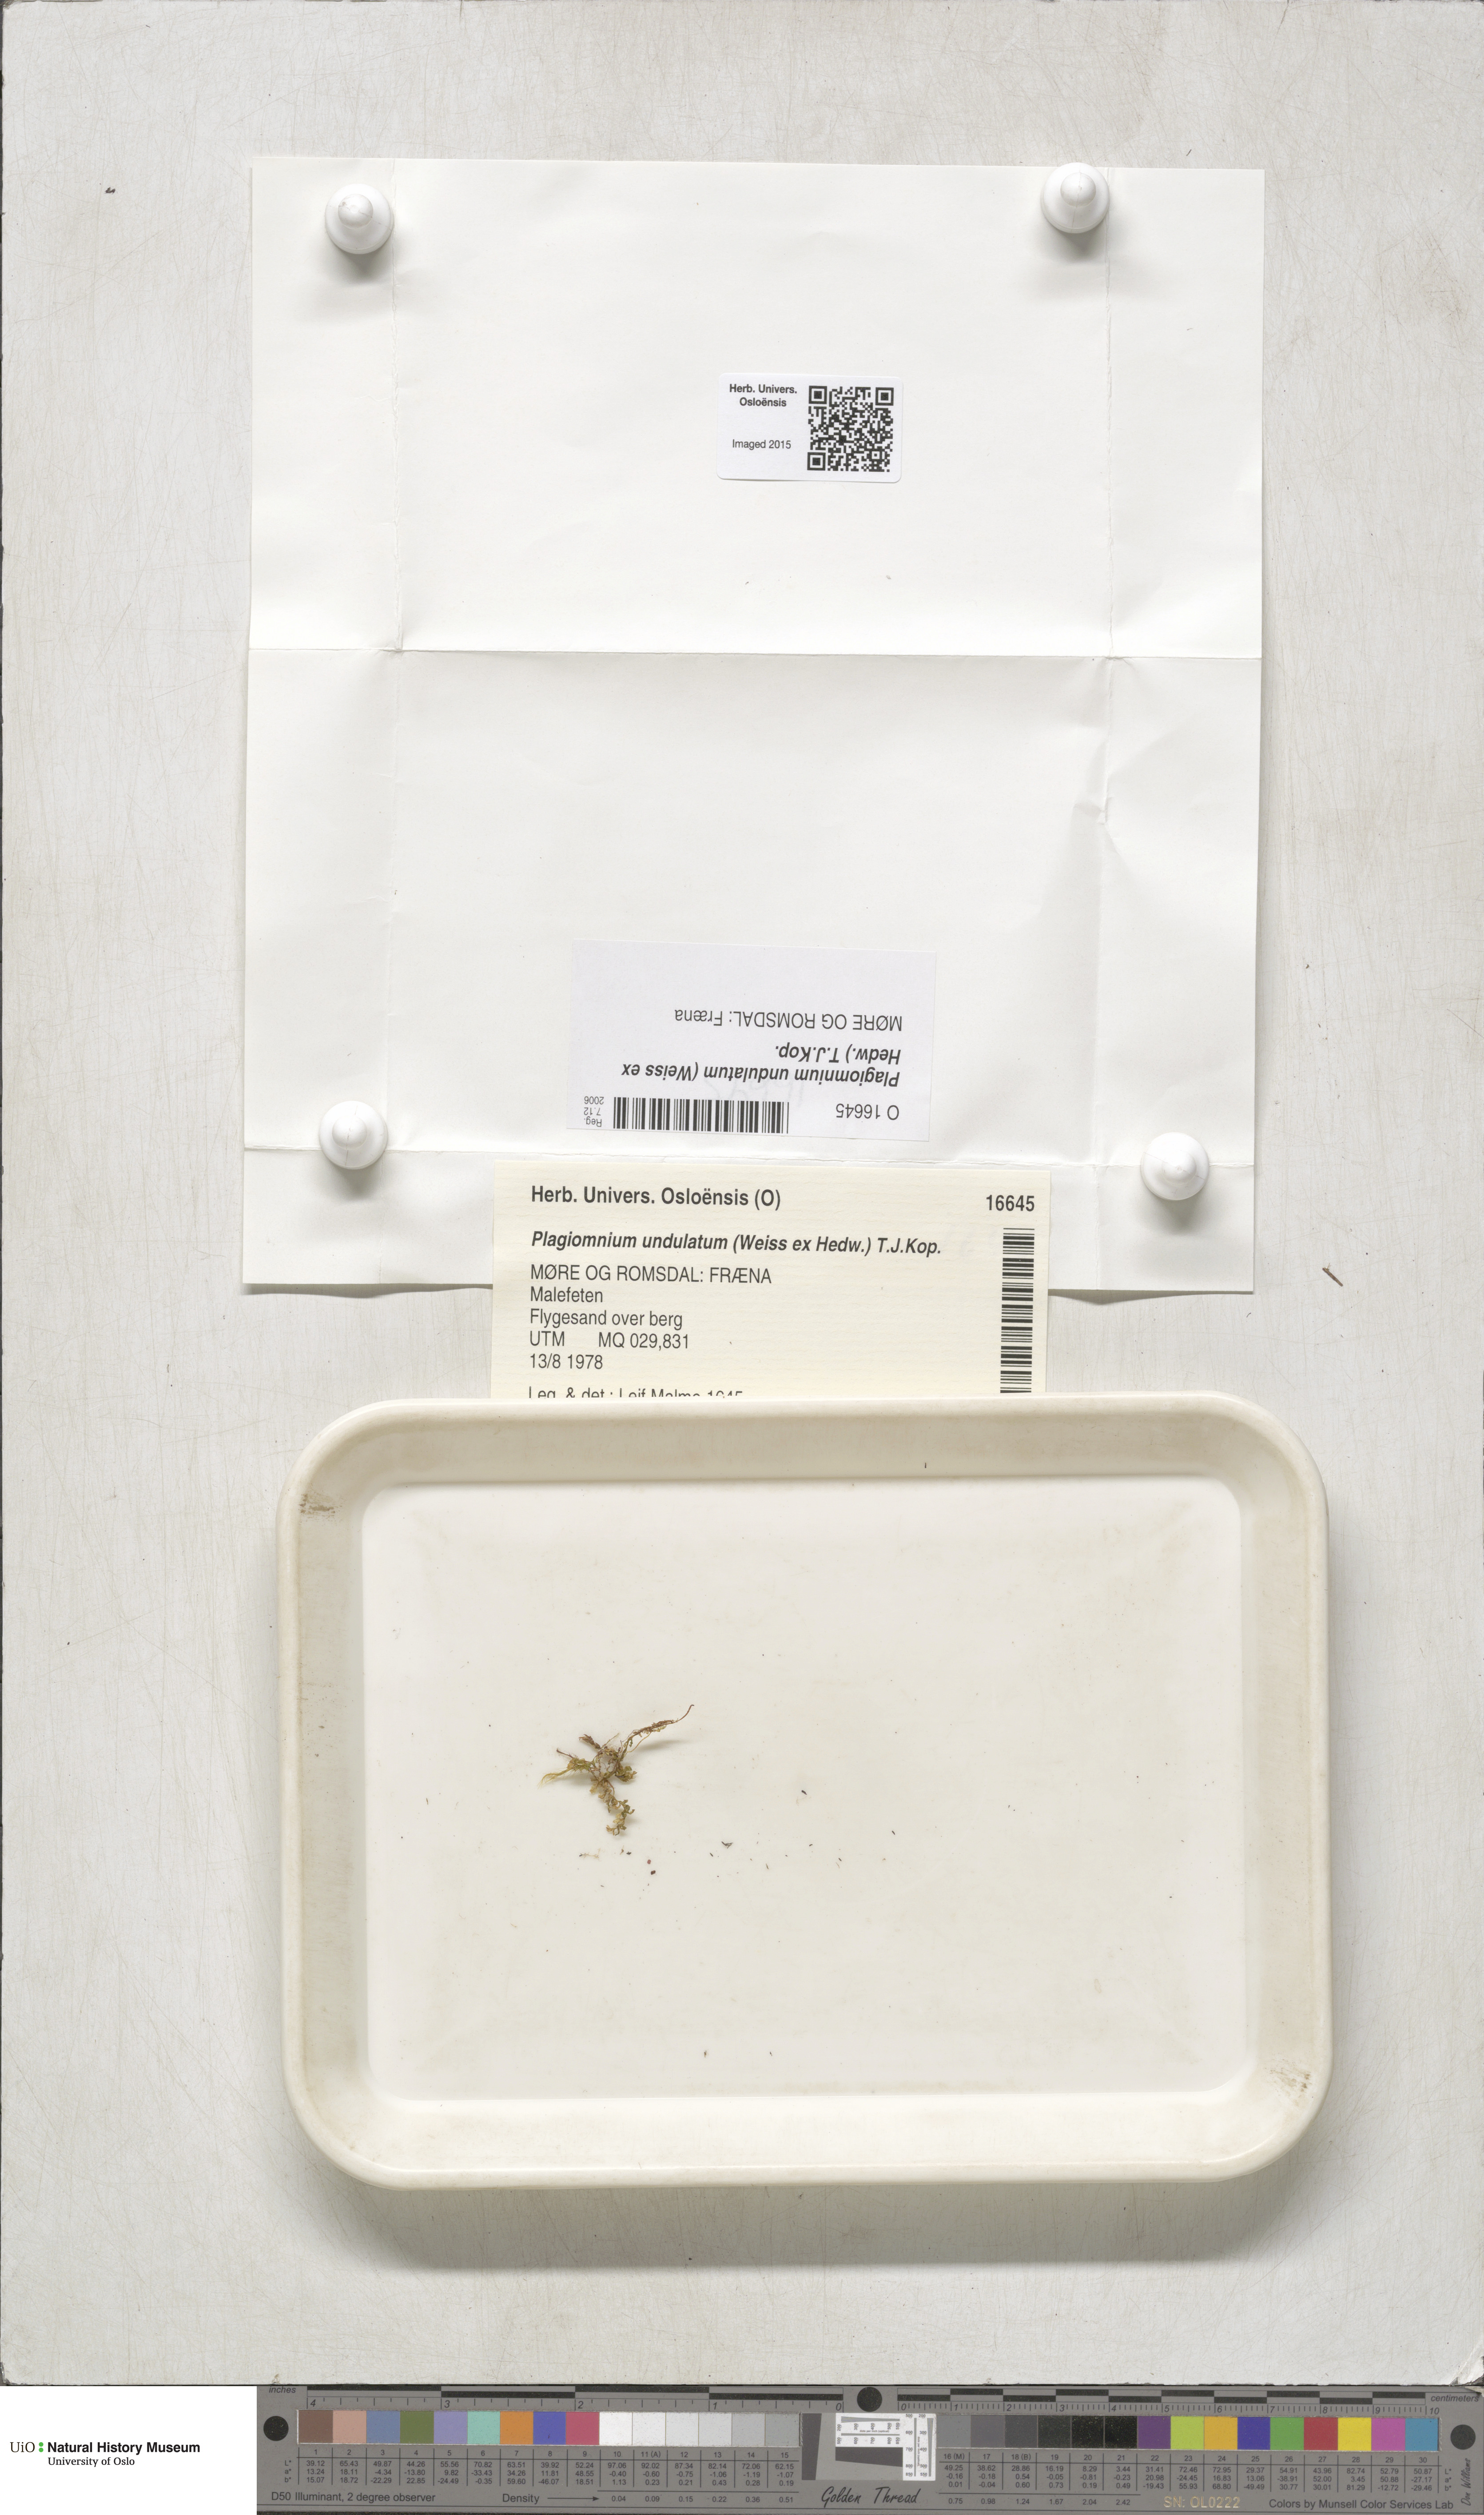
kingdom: Plantae
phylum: Bryophyta
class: Bryopsida
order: Bryales
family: Mniaceae
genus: Plagiomnium
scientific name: Plagiomnium undulatum
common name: Hart's-tongue thyme-moss
